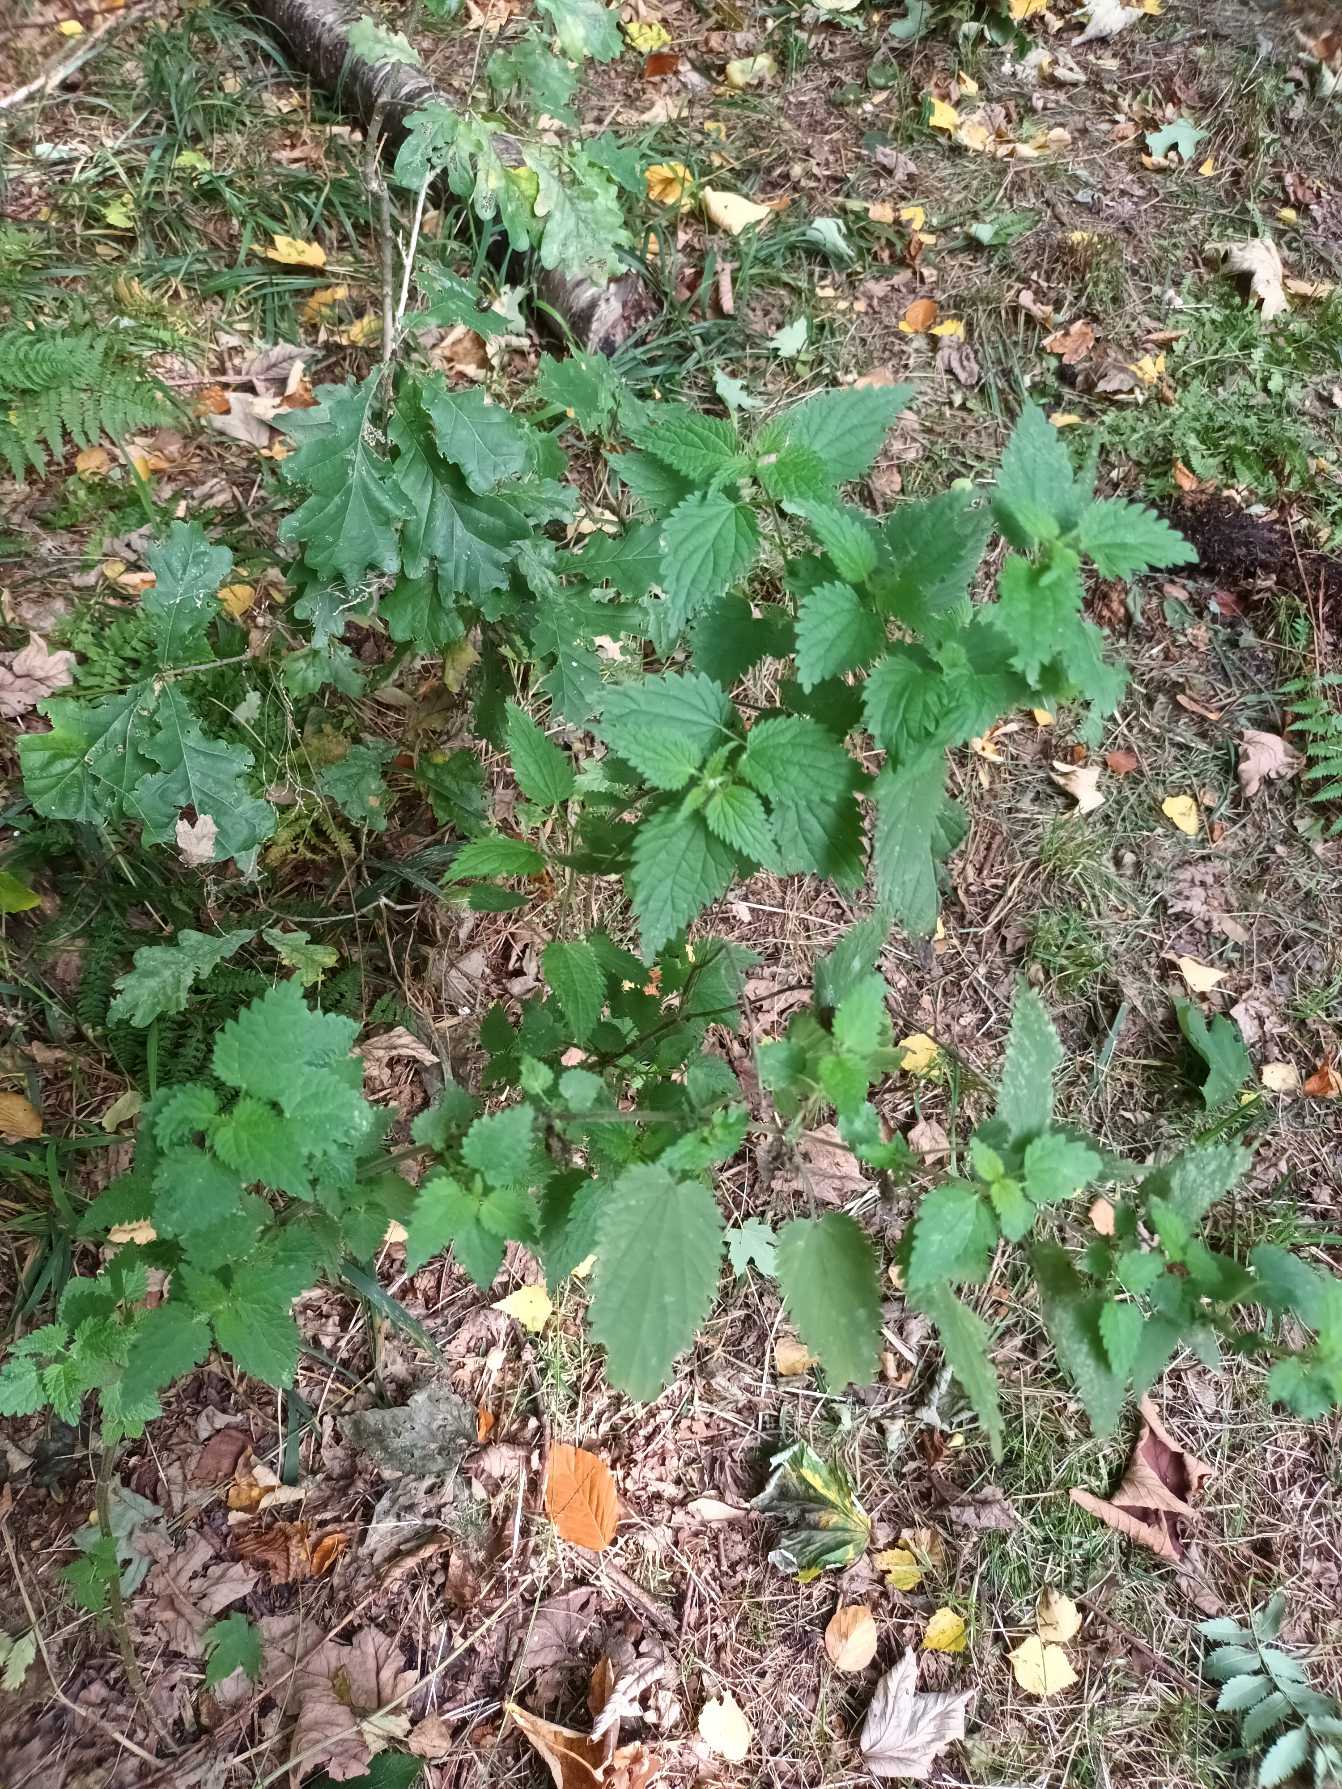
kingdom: Plantae
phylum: Tracheophyta
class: Magnoliopsida
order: Rosales
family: Urticaceae
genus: Urtica
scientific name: Urtica dioica
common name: Stor nælde
